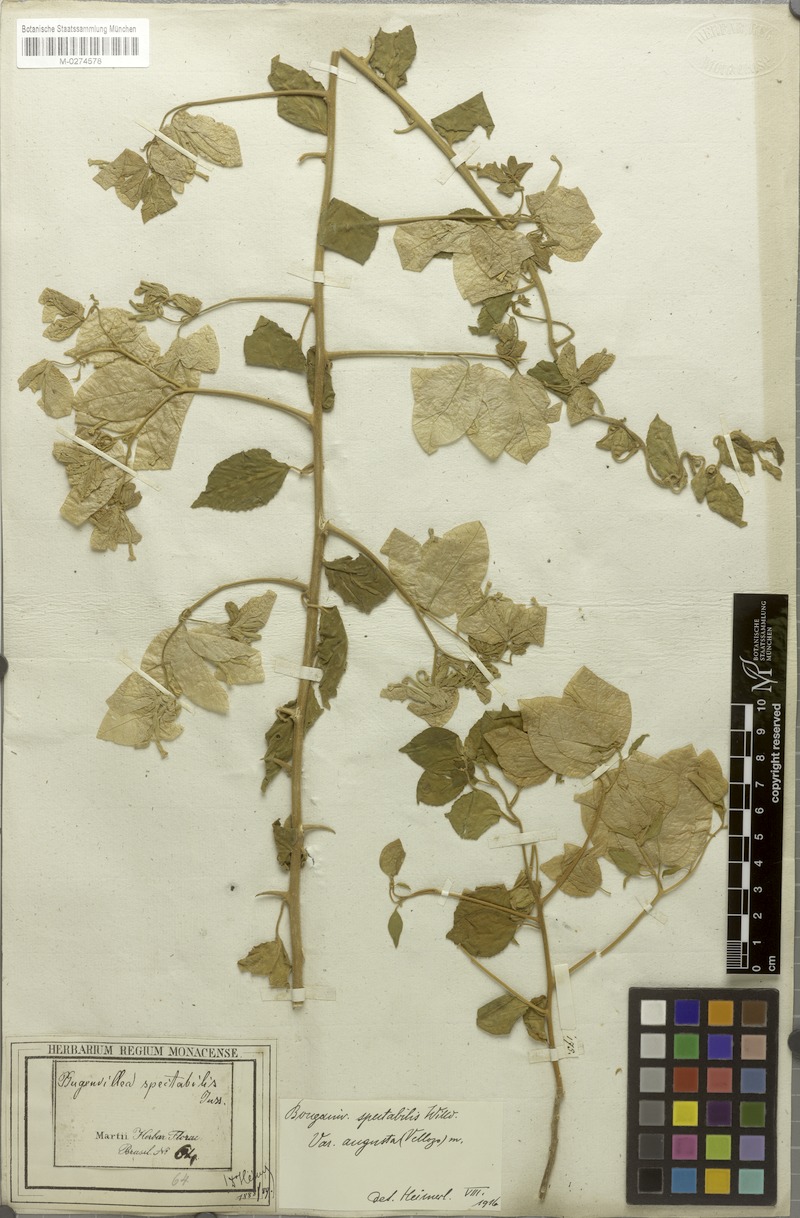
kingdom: Plantae
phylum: Tracheophyta
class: Magnoliopsida
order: Caryophyllales
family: Nyctaginaceae
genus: Bougainvillea
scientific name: Bougainvillea spectabilis
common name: Great bougainvillea
